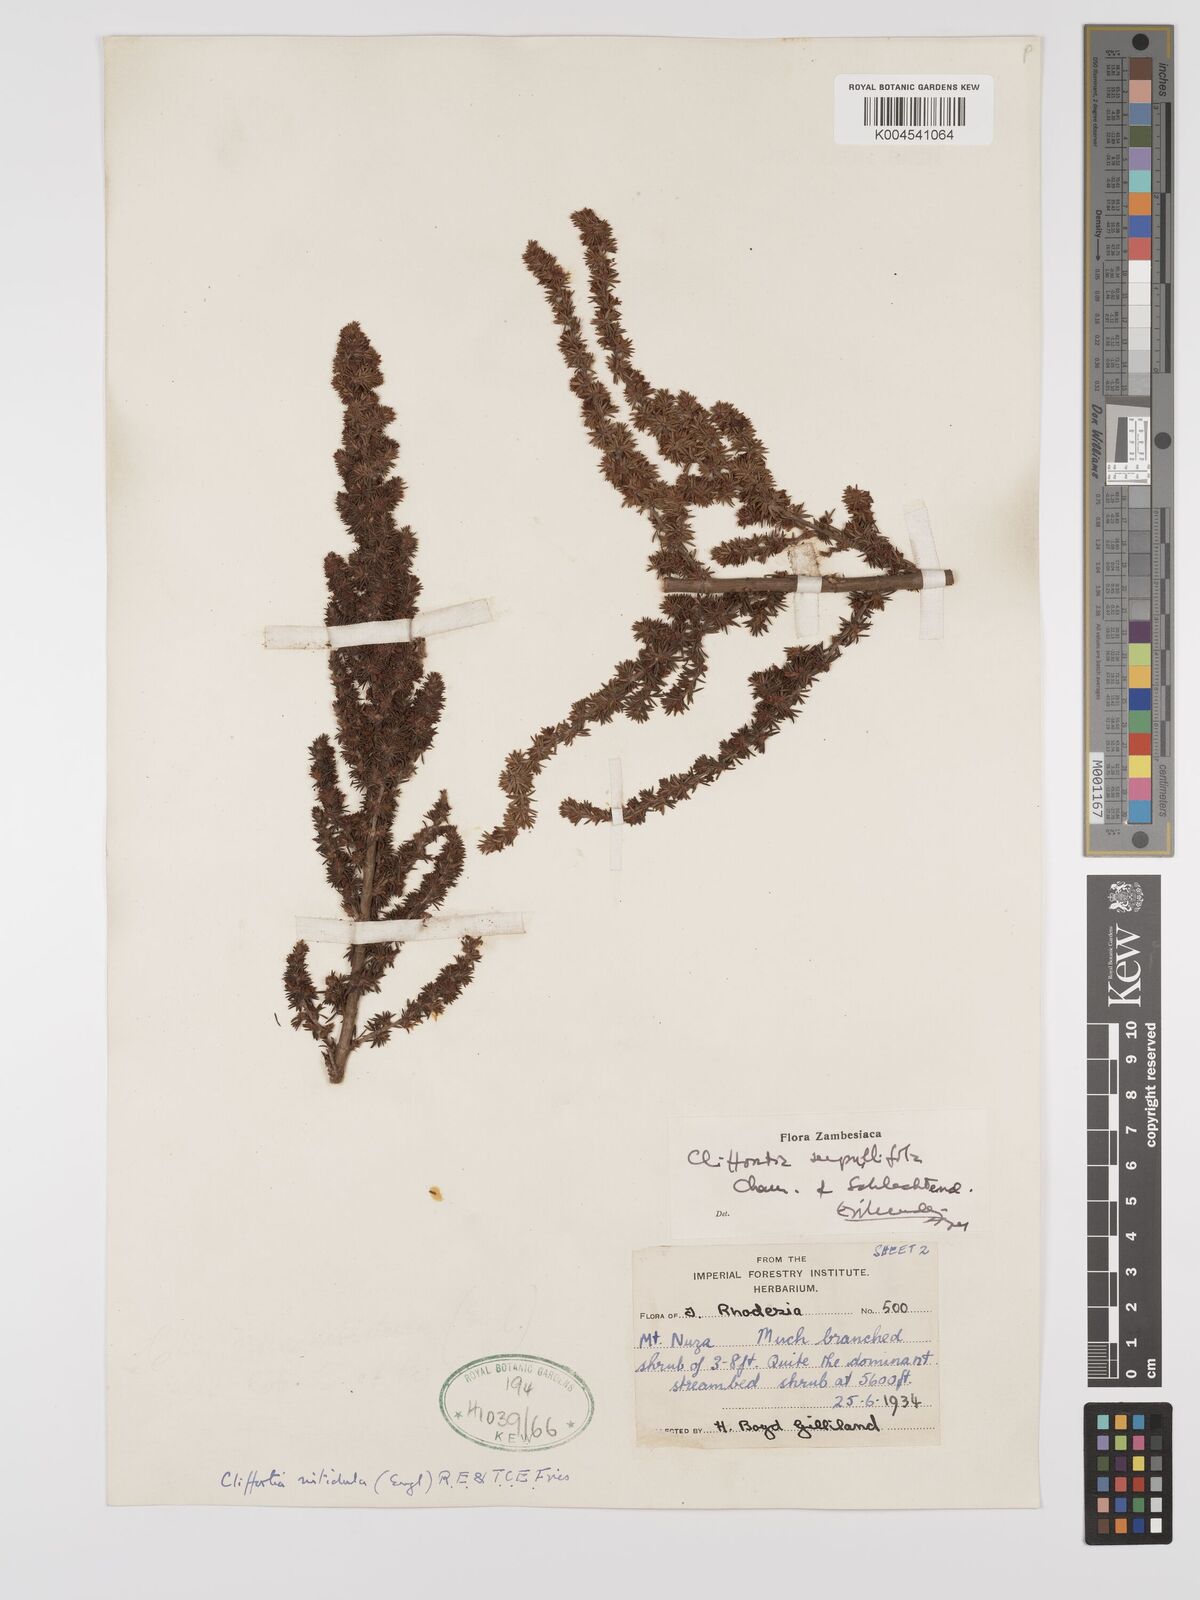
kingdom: Plantae
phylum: Tracheophyta
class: Magnoliopsida
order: Rosales
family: Rosaceae
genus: Cliffortia
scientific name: Cliffortia linearifolia
